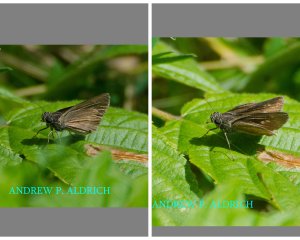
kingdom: Animalia
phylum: Arthropoda
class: Insecta
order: Lepidoptera
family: Hesperiidae
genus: Euphyes
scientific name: Euphyes vestris
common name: Dun Skipper
